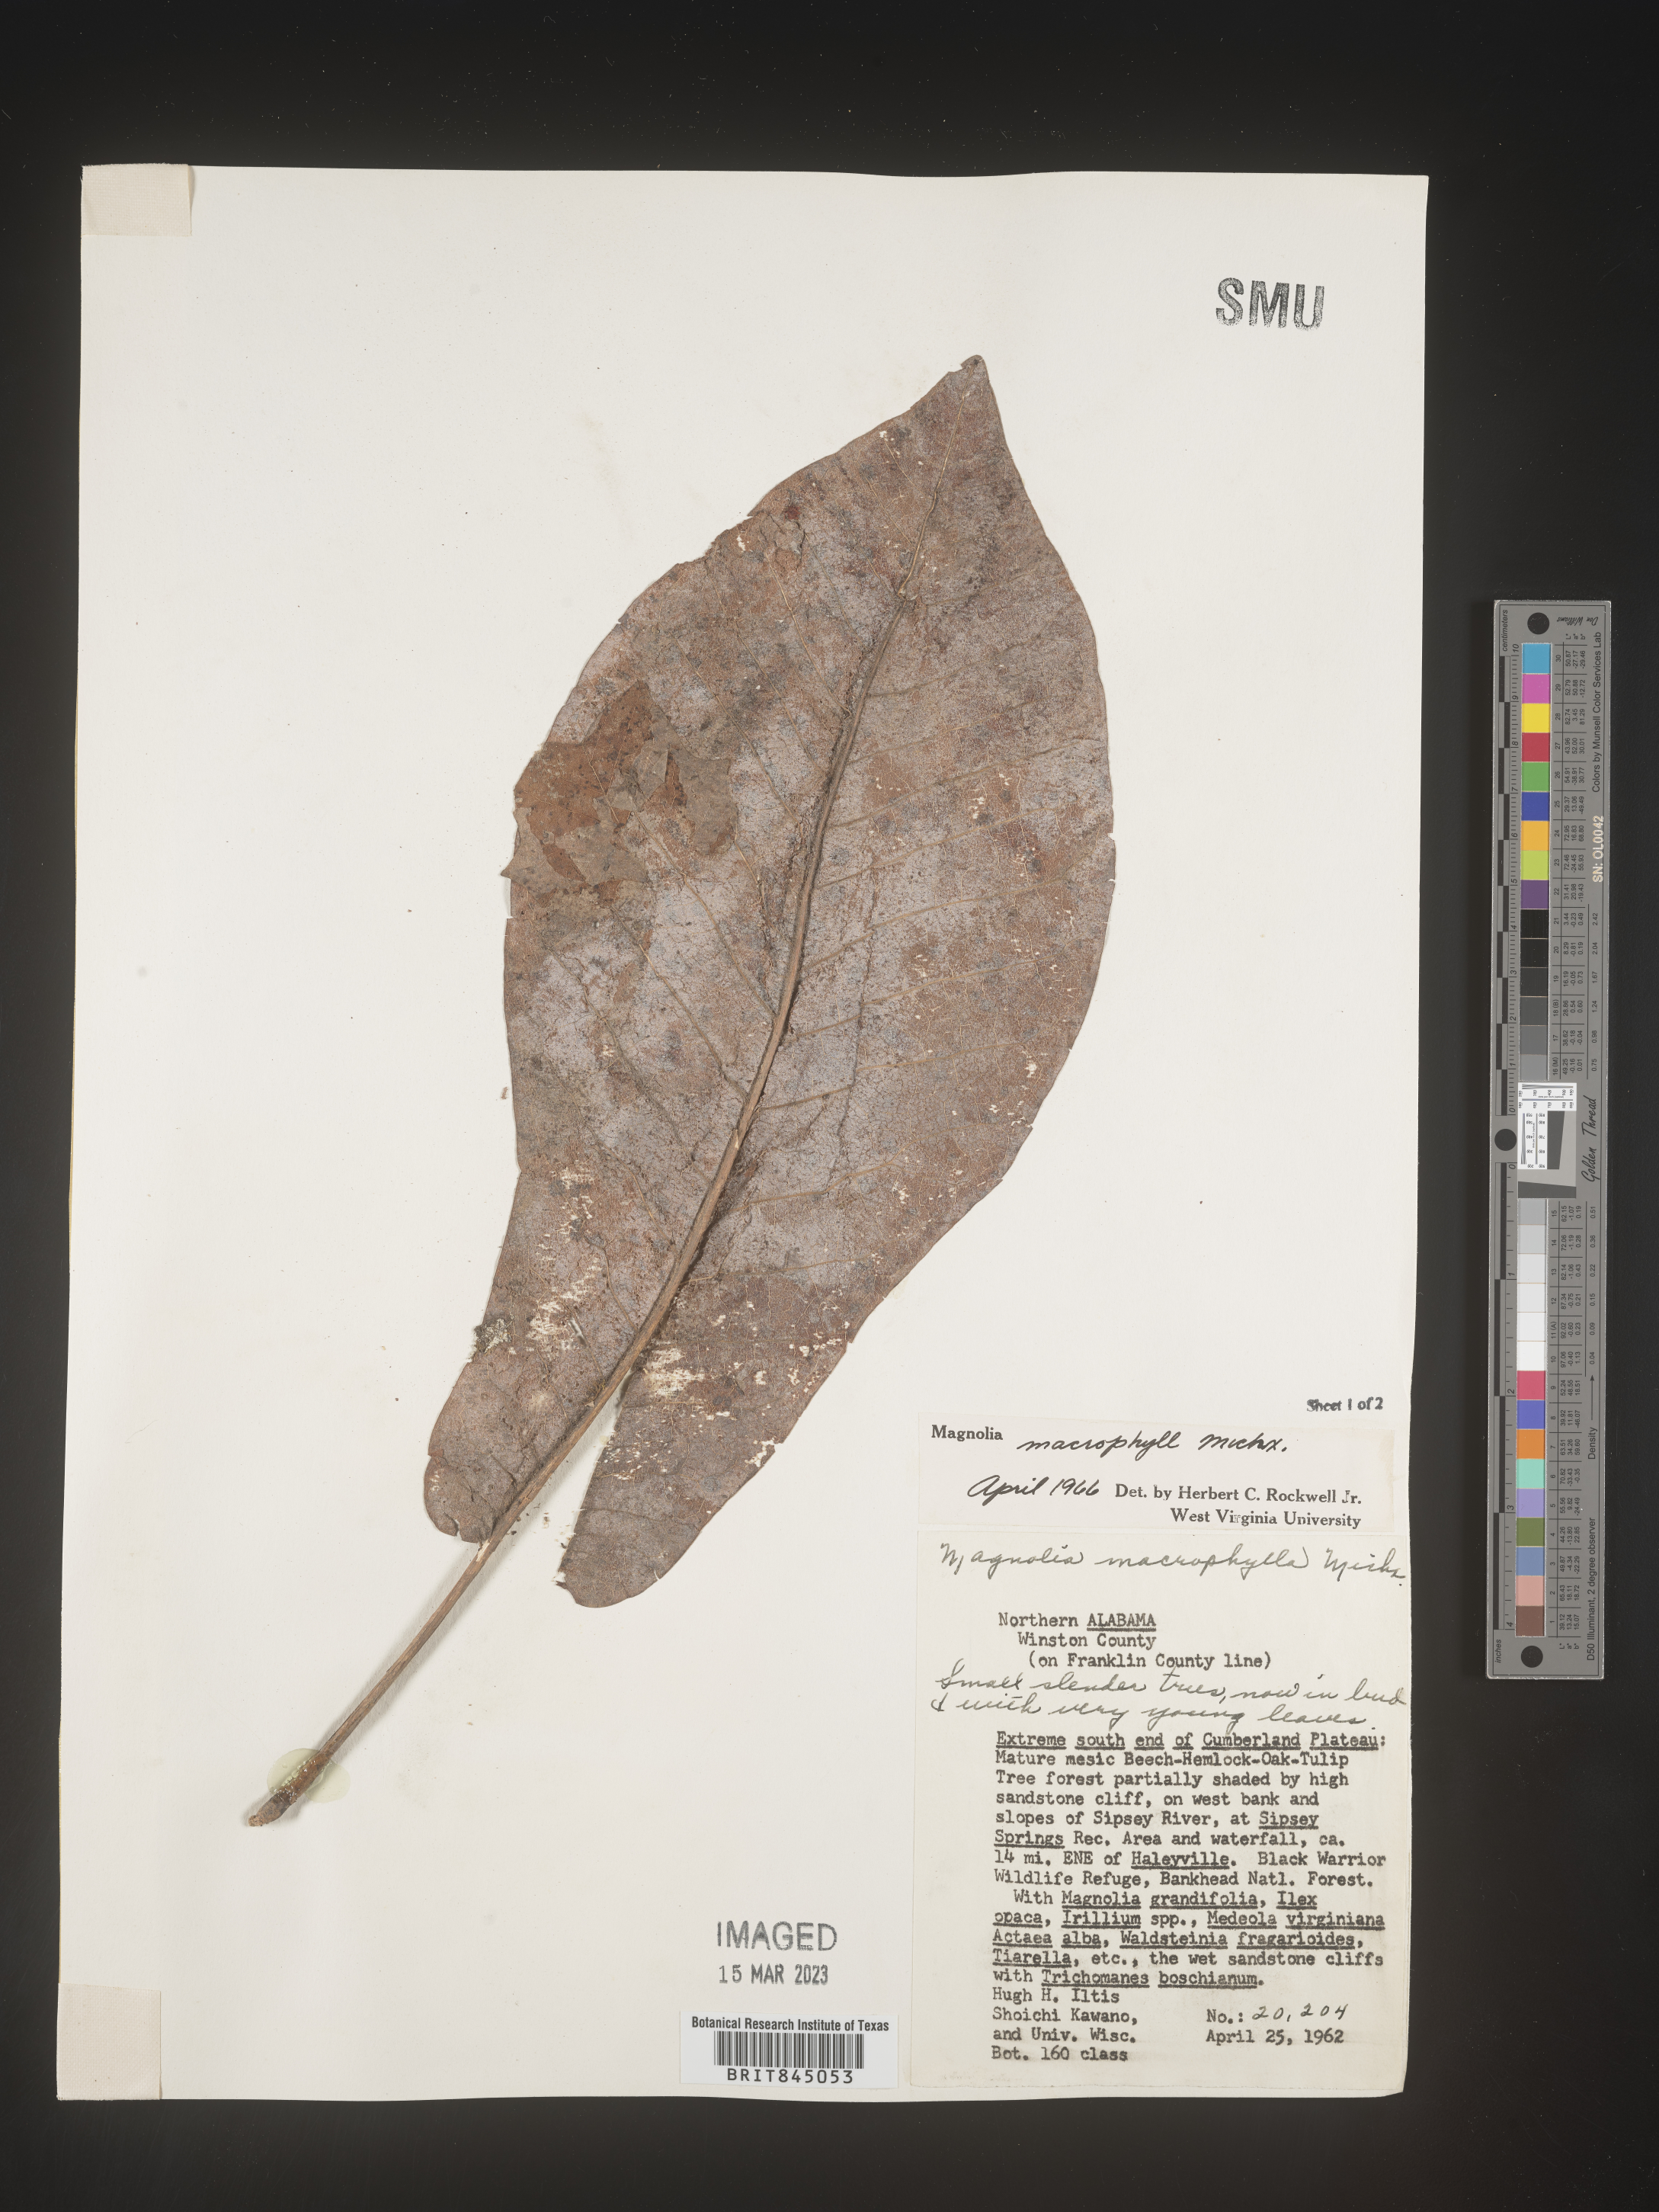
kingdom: Plantae
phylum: Tracheophyta
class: Magnoliopsida
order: Magnoliales
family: Magnoliaceae
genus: Magnolia
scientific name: Magnolia macrophylla
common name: Big-leaf magnolia
